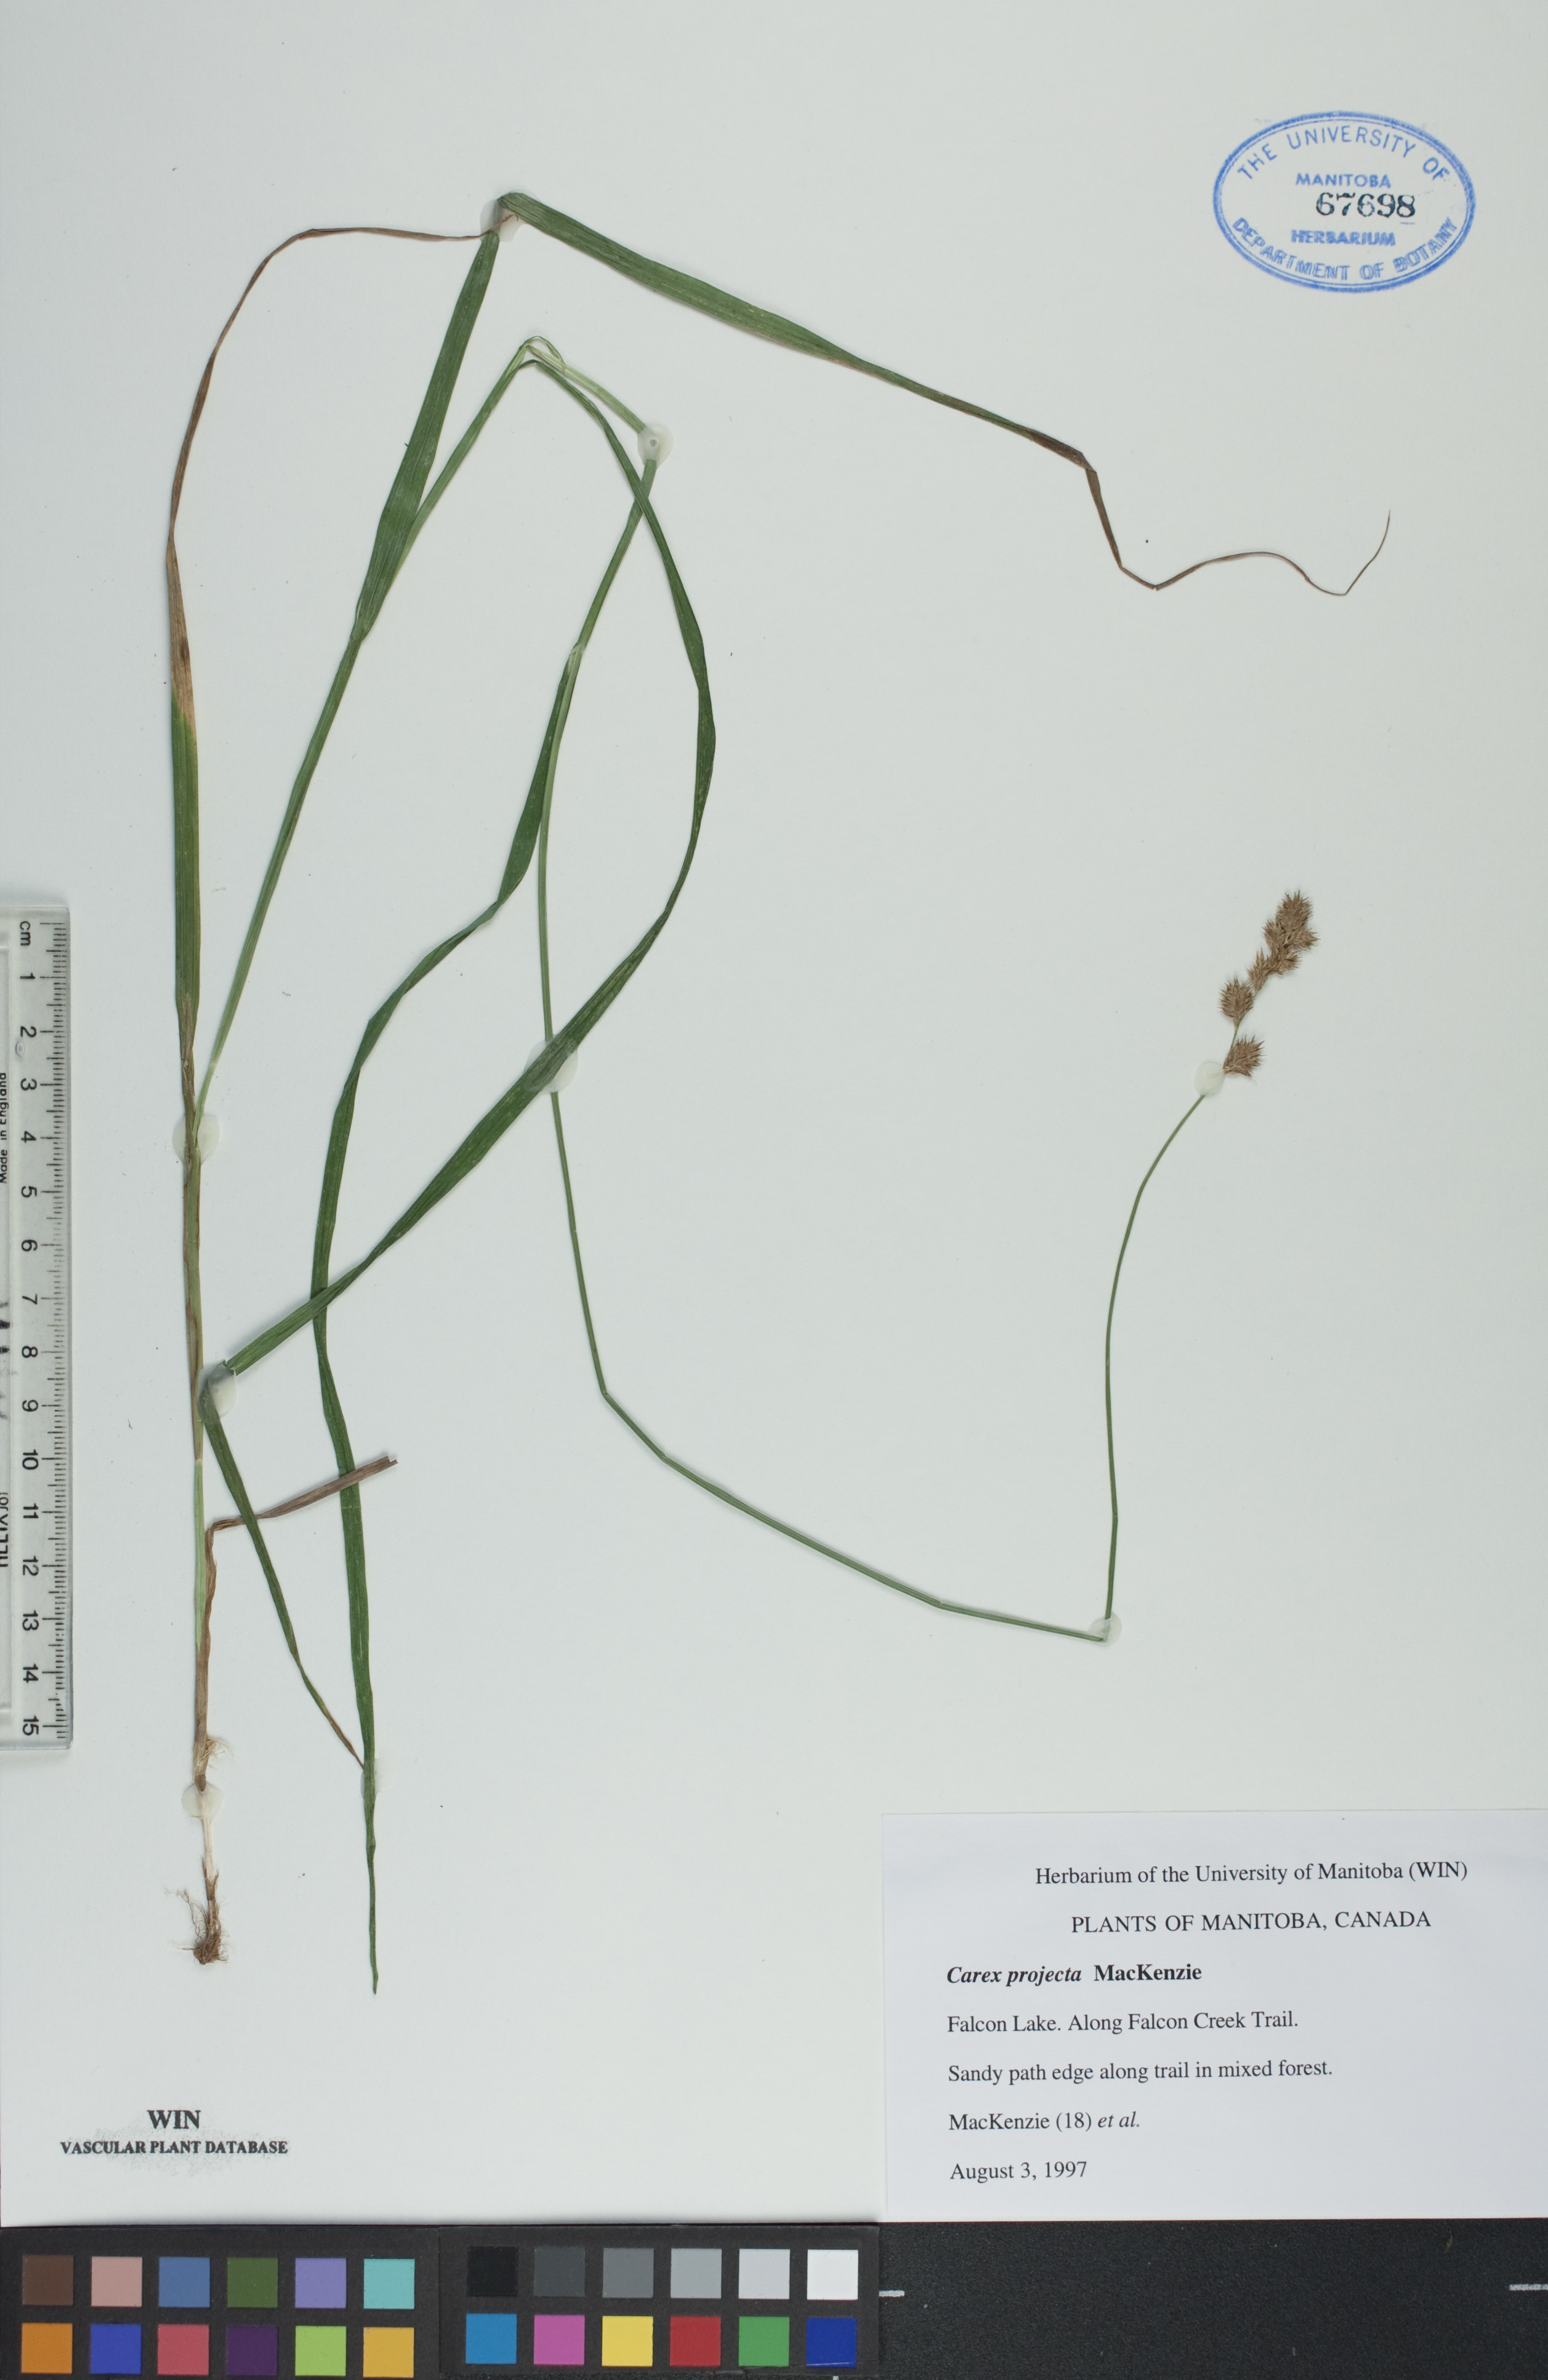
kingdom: Plantae
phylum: Tracheophyta
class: Liliopsida
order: Poales
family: Cyperaceae
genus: Carex
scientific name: Carex projecta
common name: Loose-headed oval sedge
